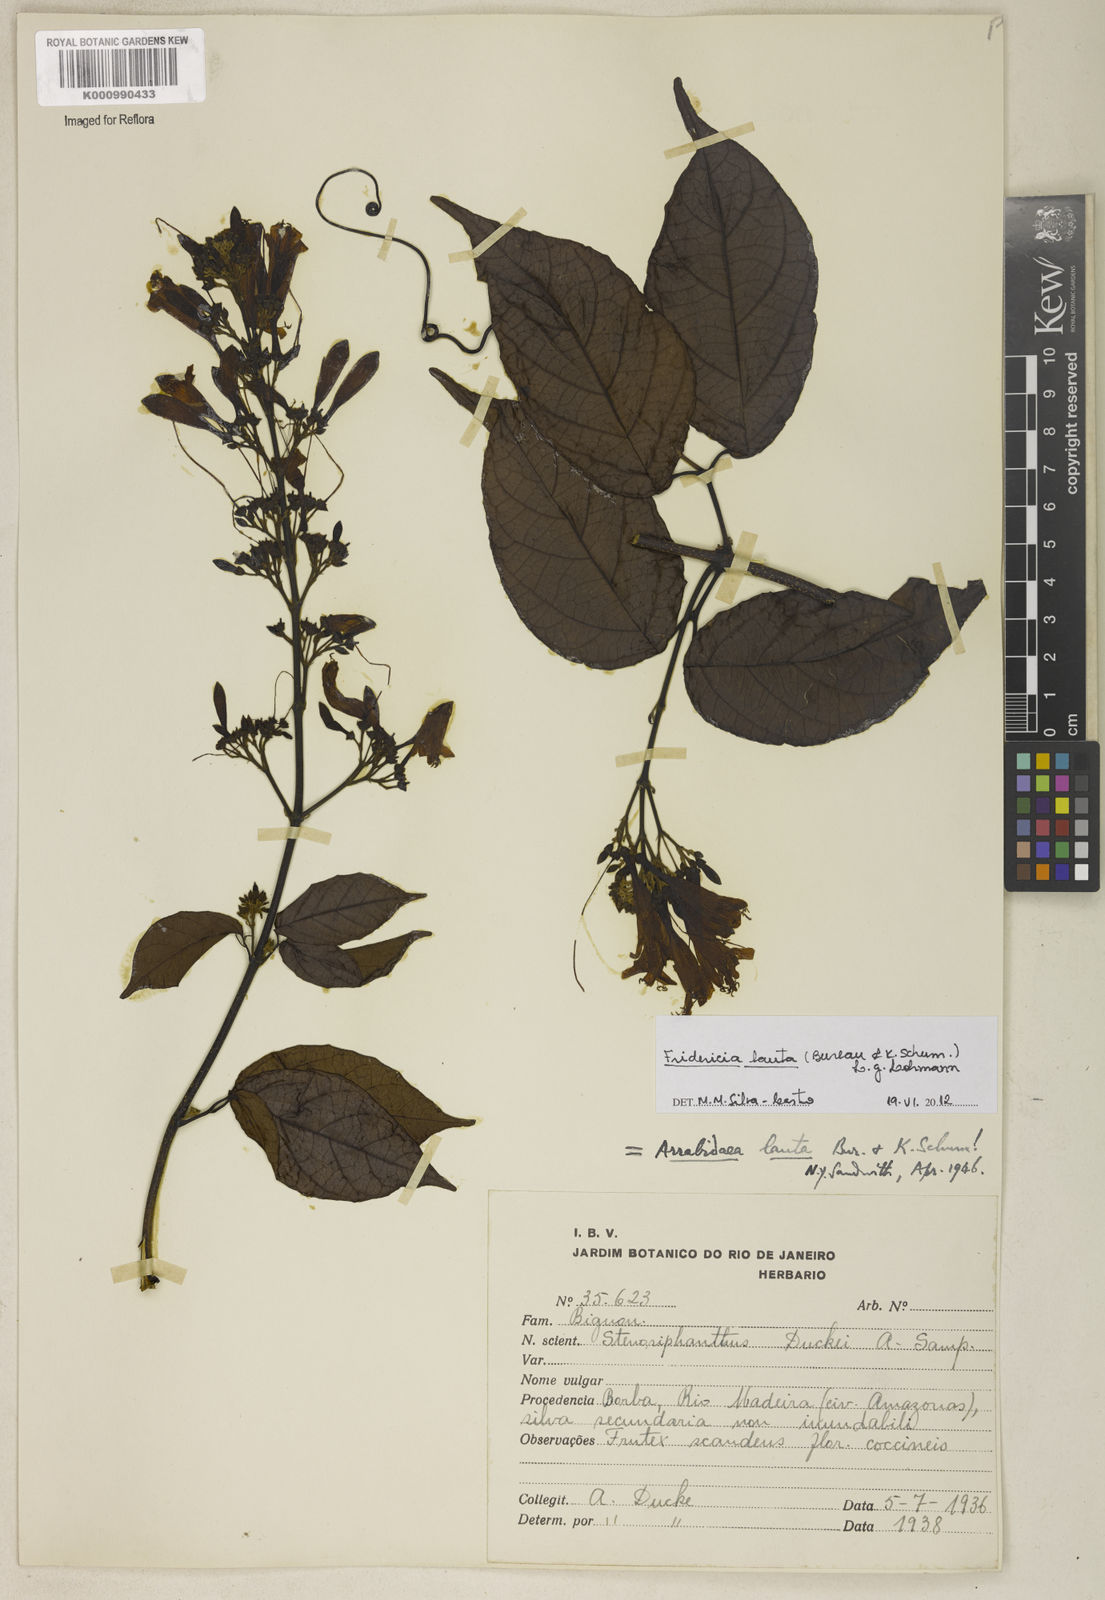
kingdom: Plantae
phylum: Tracheophyta
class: Magnoliopsida
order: Lamiales
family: Bignoniaceae
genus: Fridericia
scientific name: Fridericia lauta
